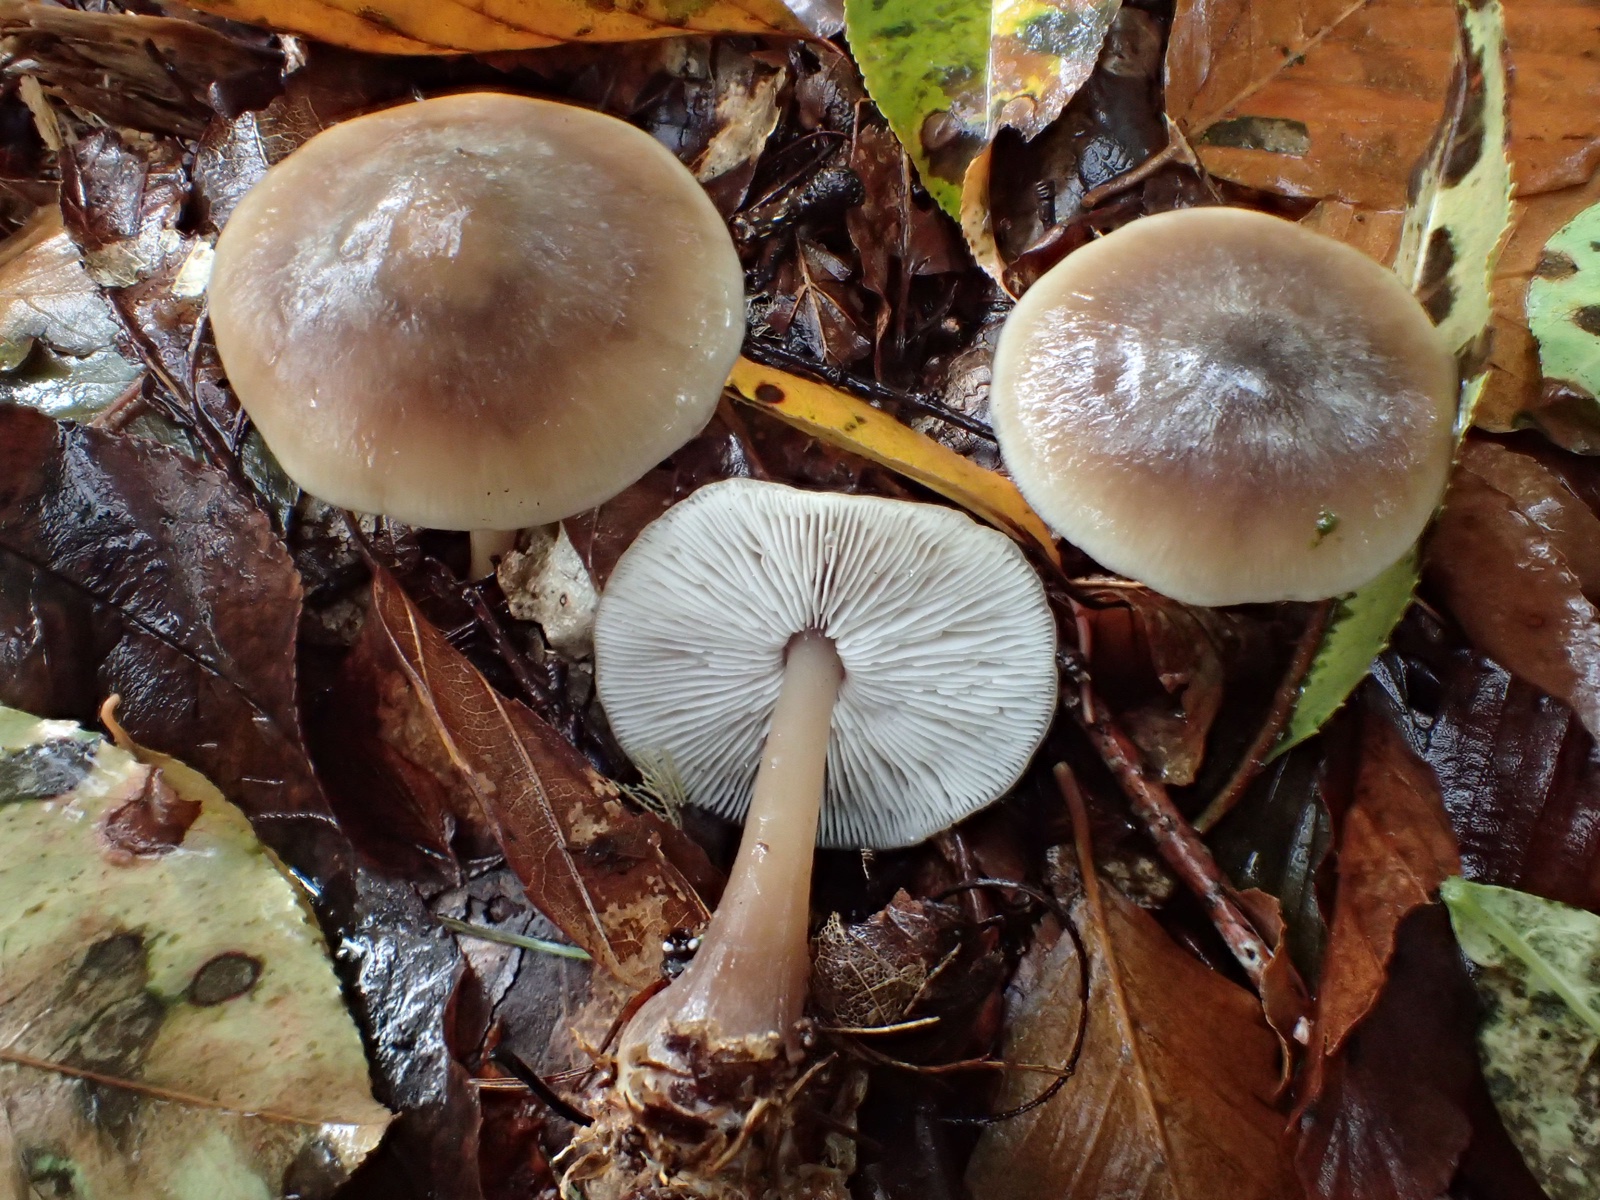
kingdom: Fungi
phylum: Basidiomycota
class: Agaricomycetes
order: Agaricales
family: Omphalotaceae
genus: Rhodocollybia
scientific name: Rhodocollybia asema
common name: horngrå fladhat
